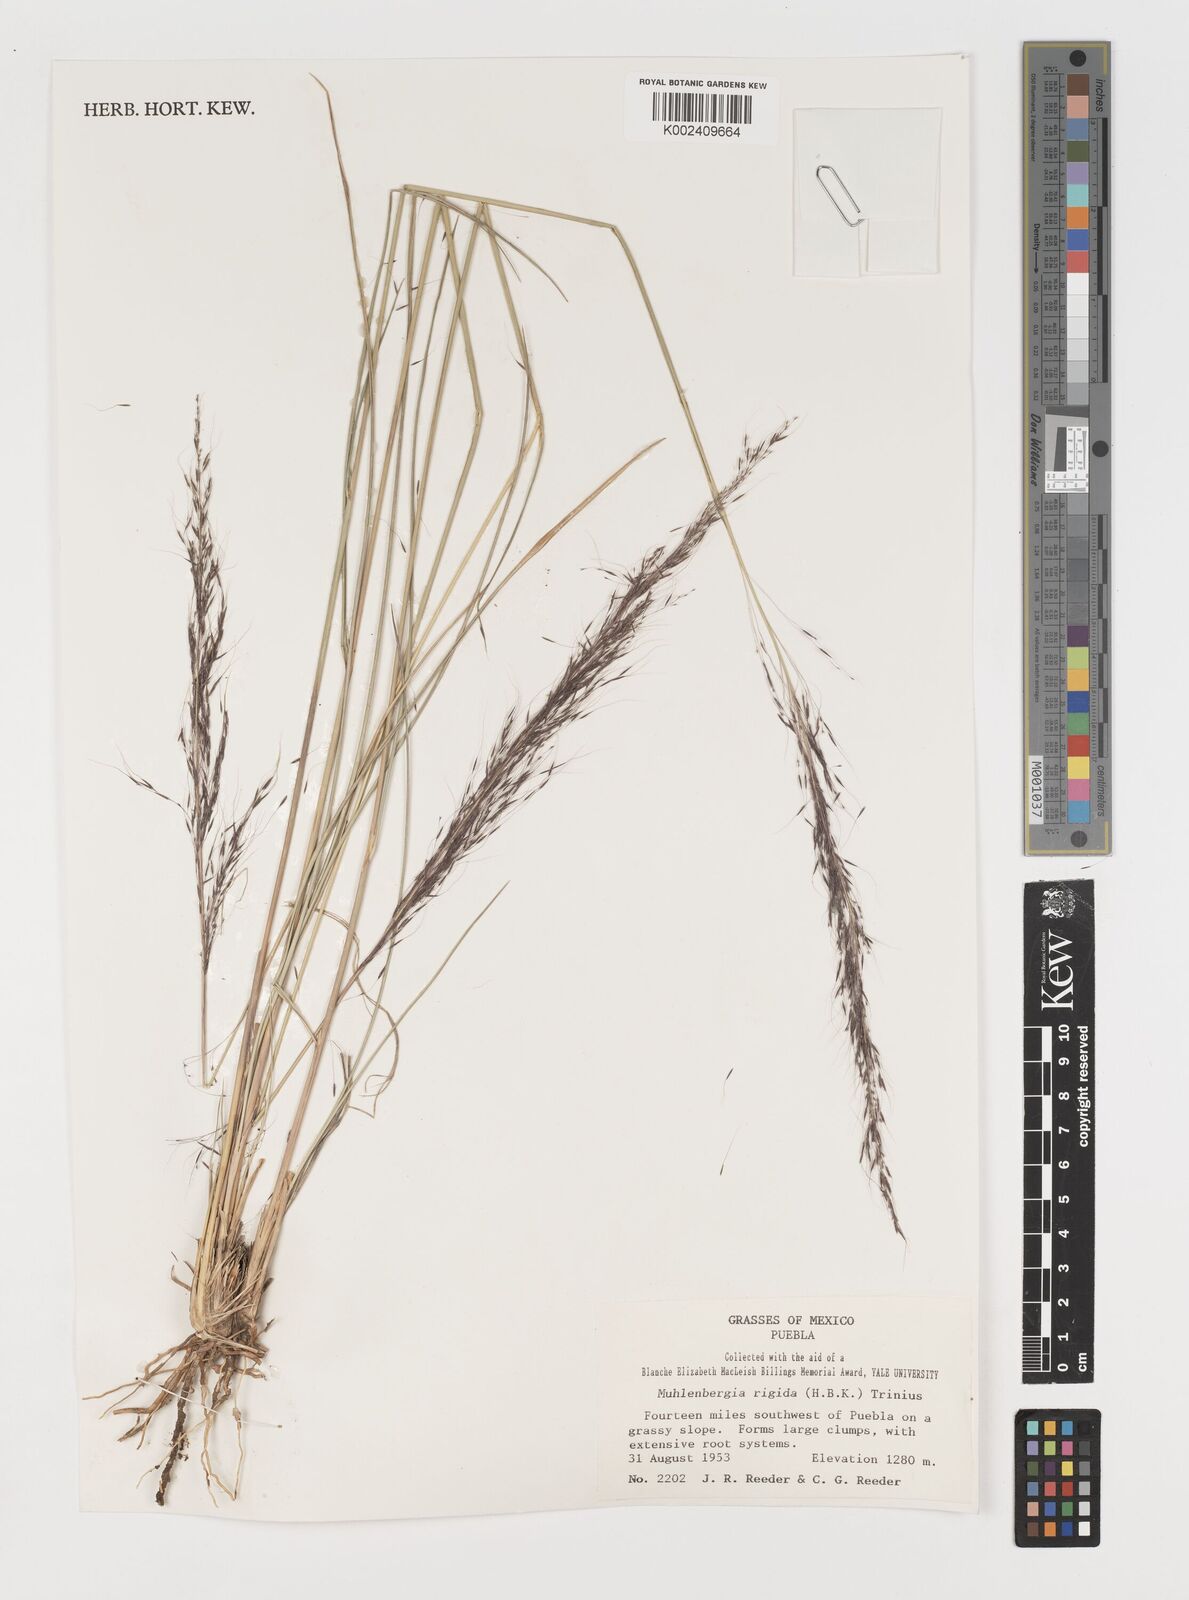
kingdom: Plantae
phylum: Tracheophyta
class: Liliopsida
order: Poales
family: Poaceae
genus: Muhlenbergia
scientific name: Muhlenbergia rigida
